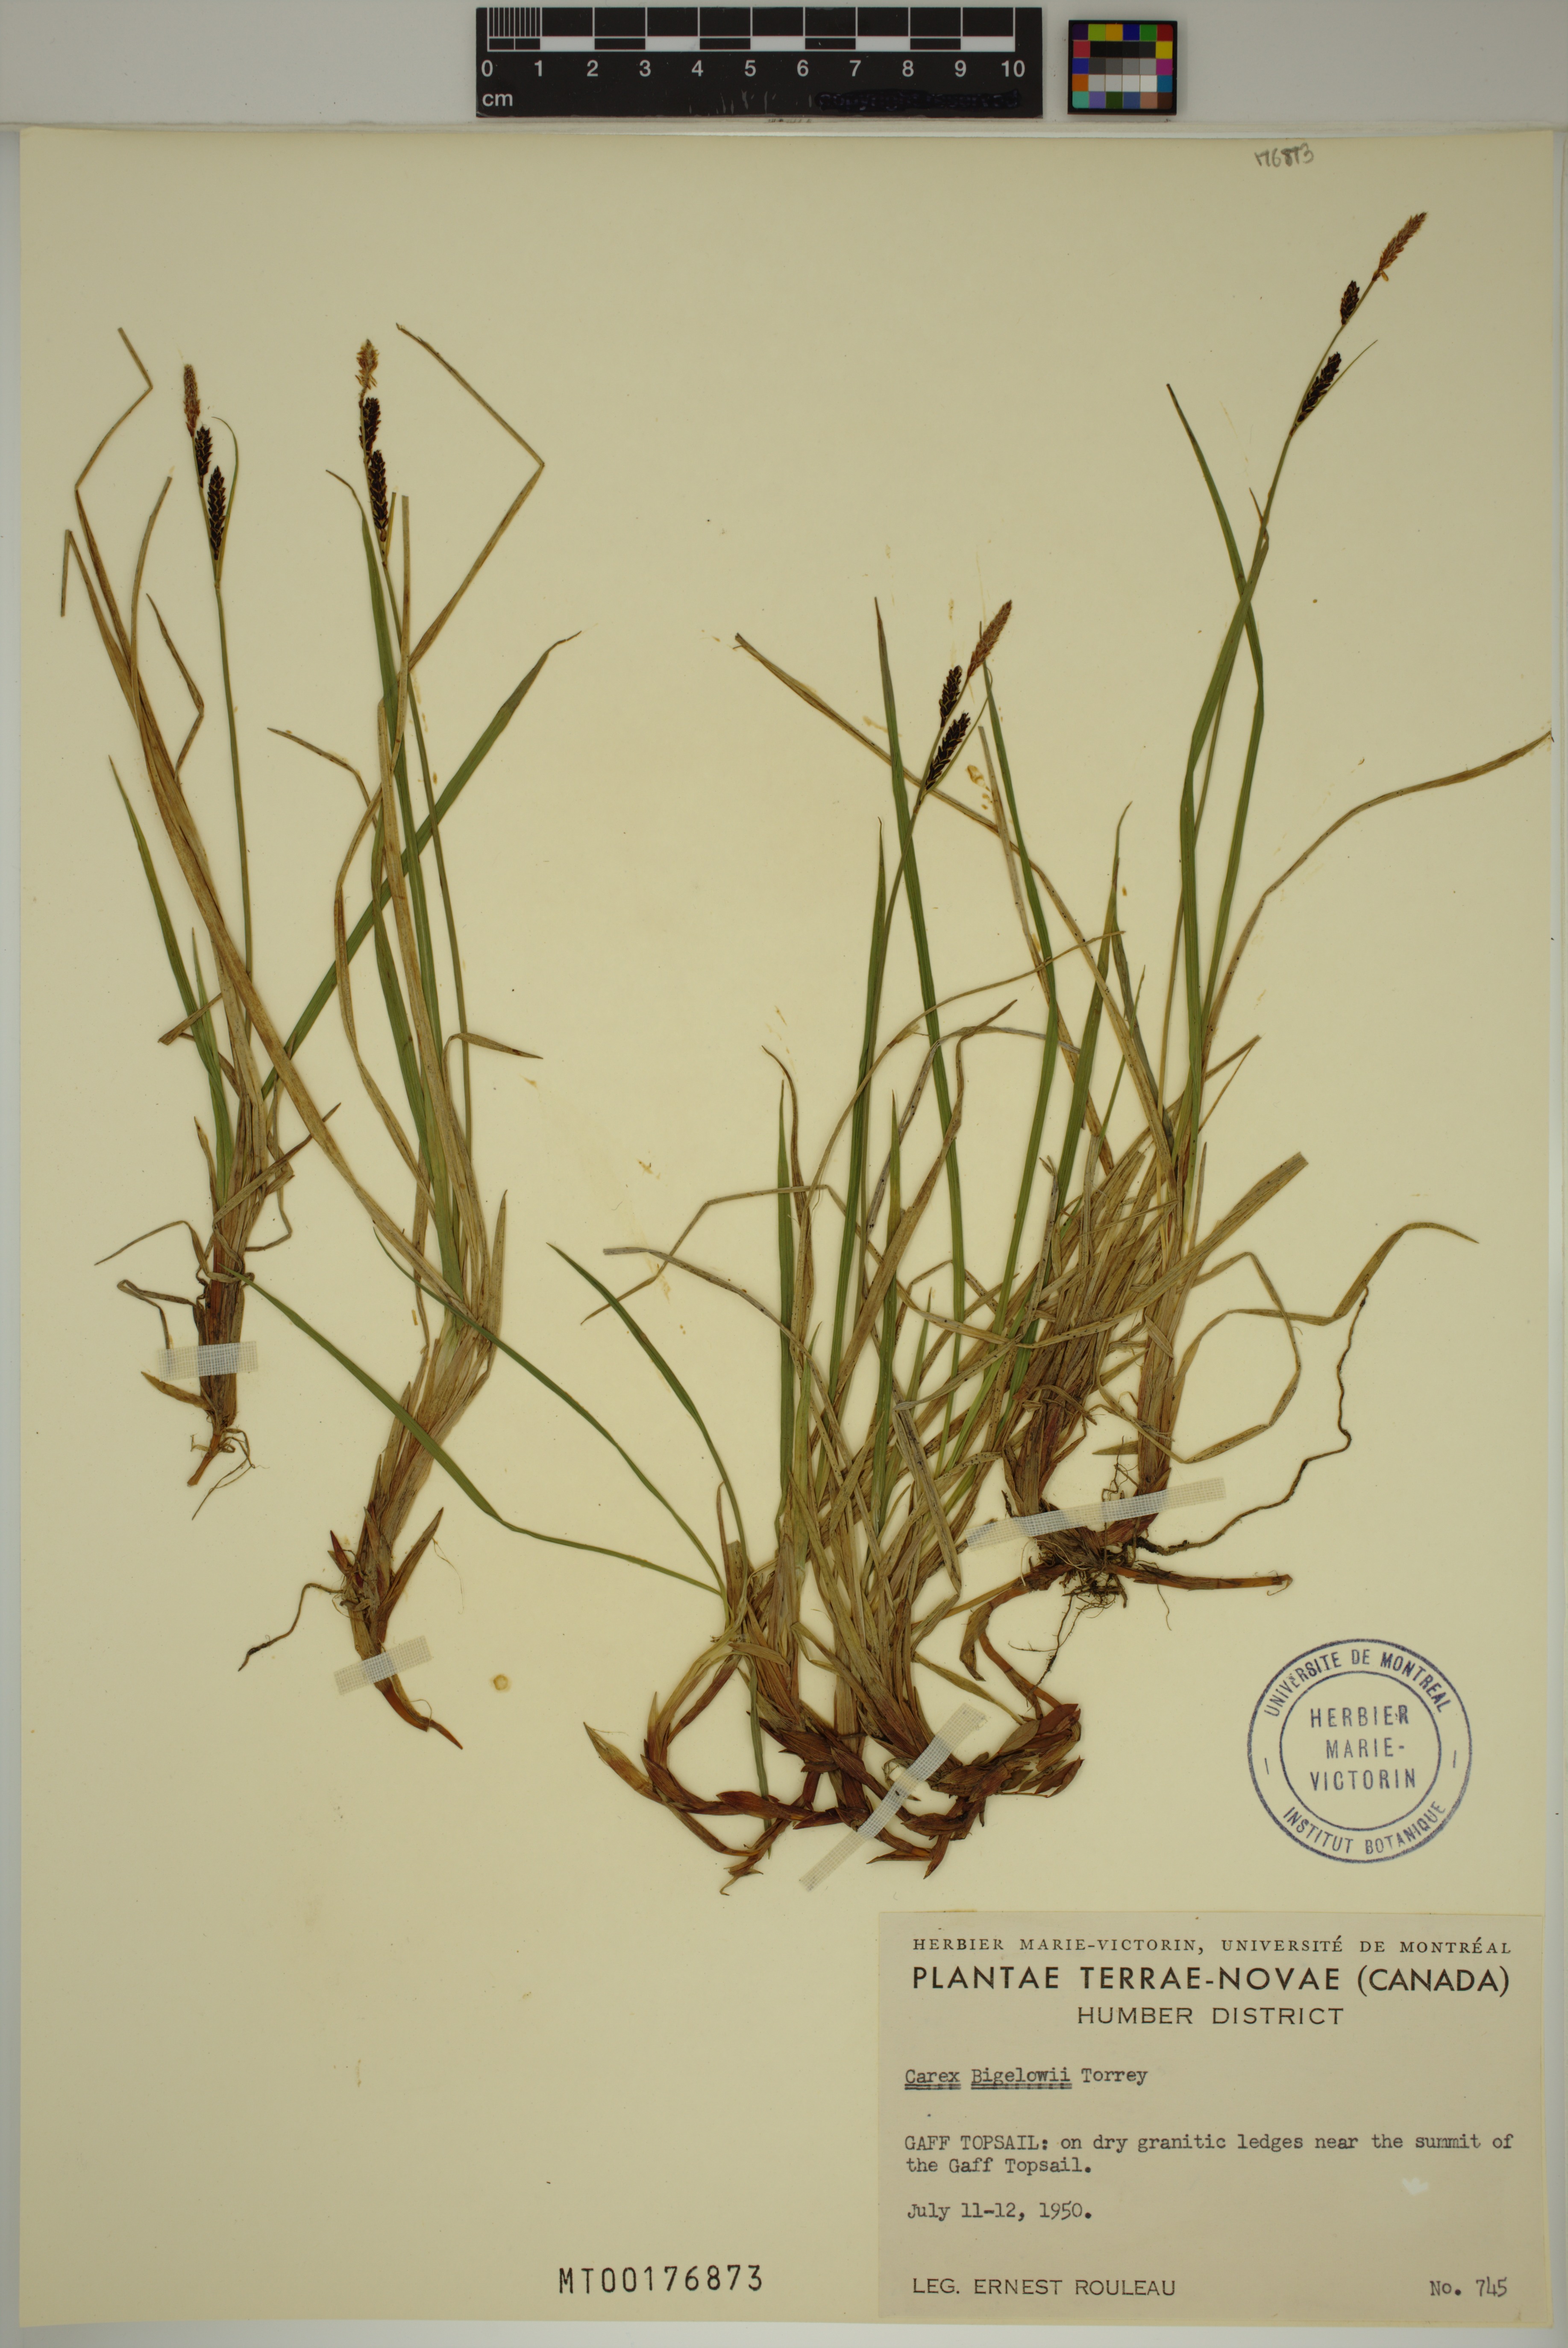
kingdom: Plantae
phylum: Tracheophyta
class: Liliopsida
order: Poales
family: Cyperaceae
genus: Carex
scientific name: Carex bigelowii
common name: Stiff sedge
